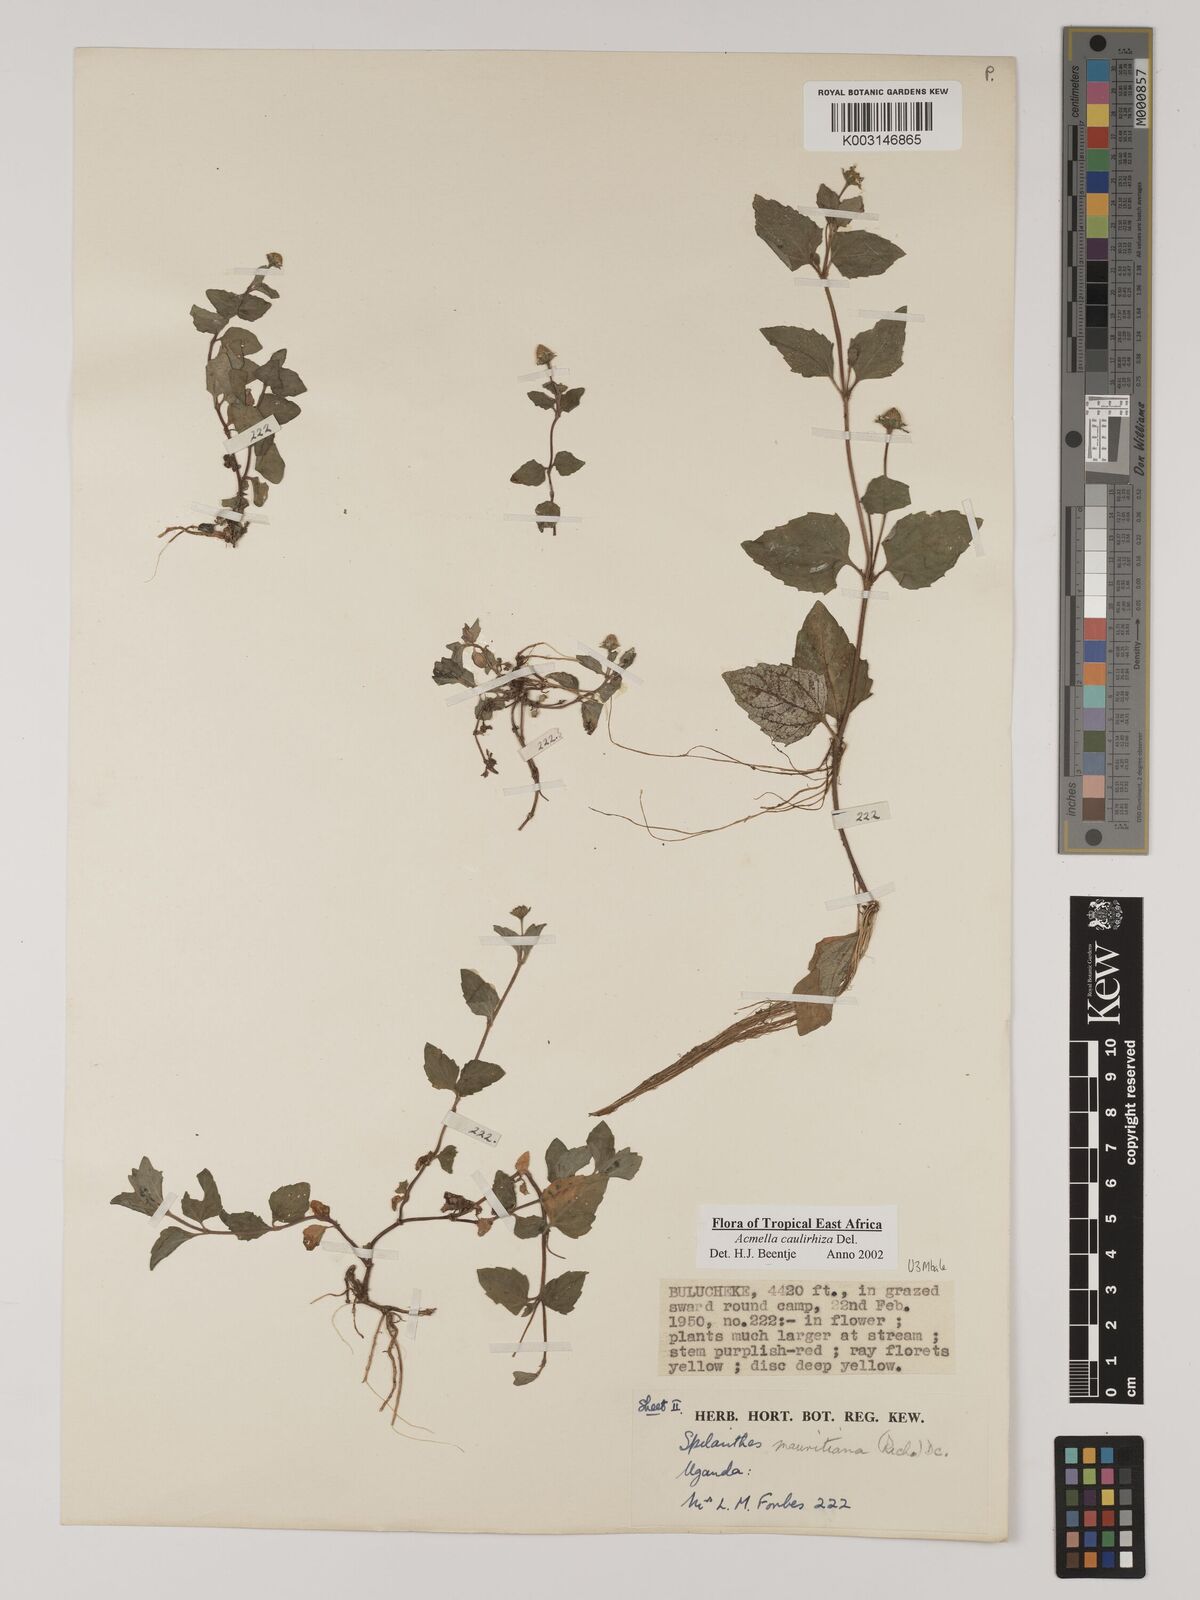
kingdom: Plantae
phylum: Tracheophyta
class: Magnoliopsida
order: Asterales
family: Asteraceae
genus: Acmella
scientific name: Acmella caulirhiza
